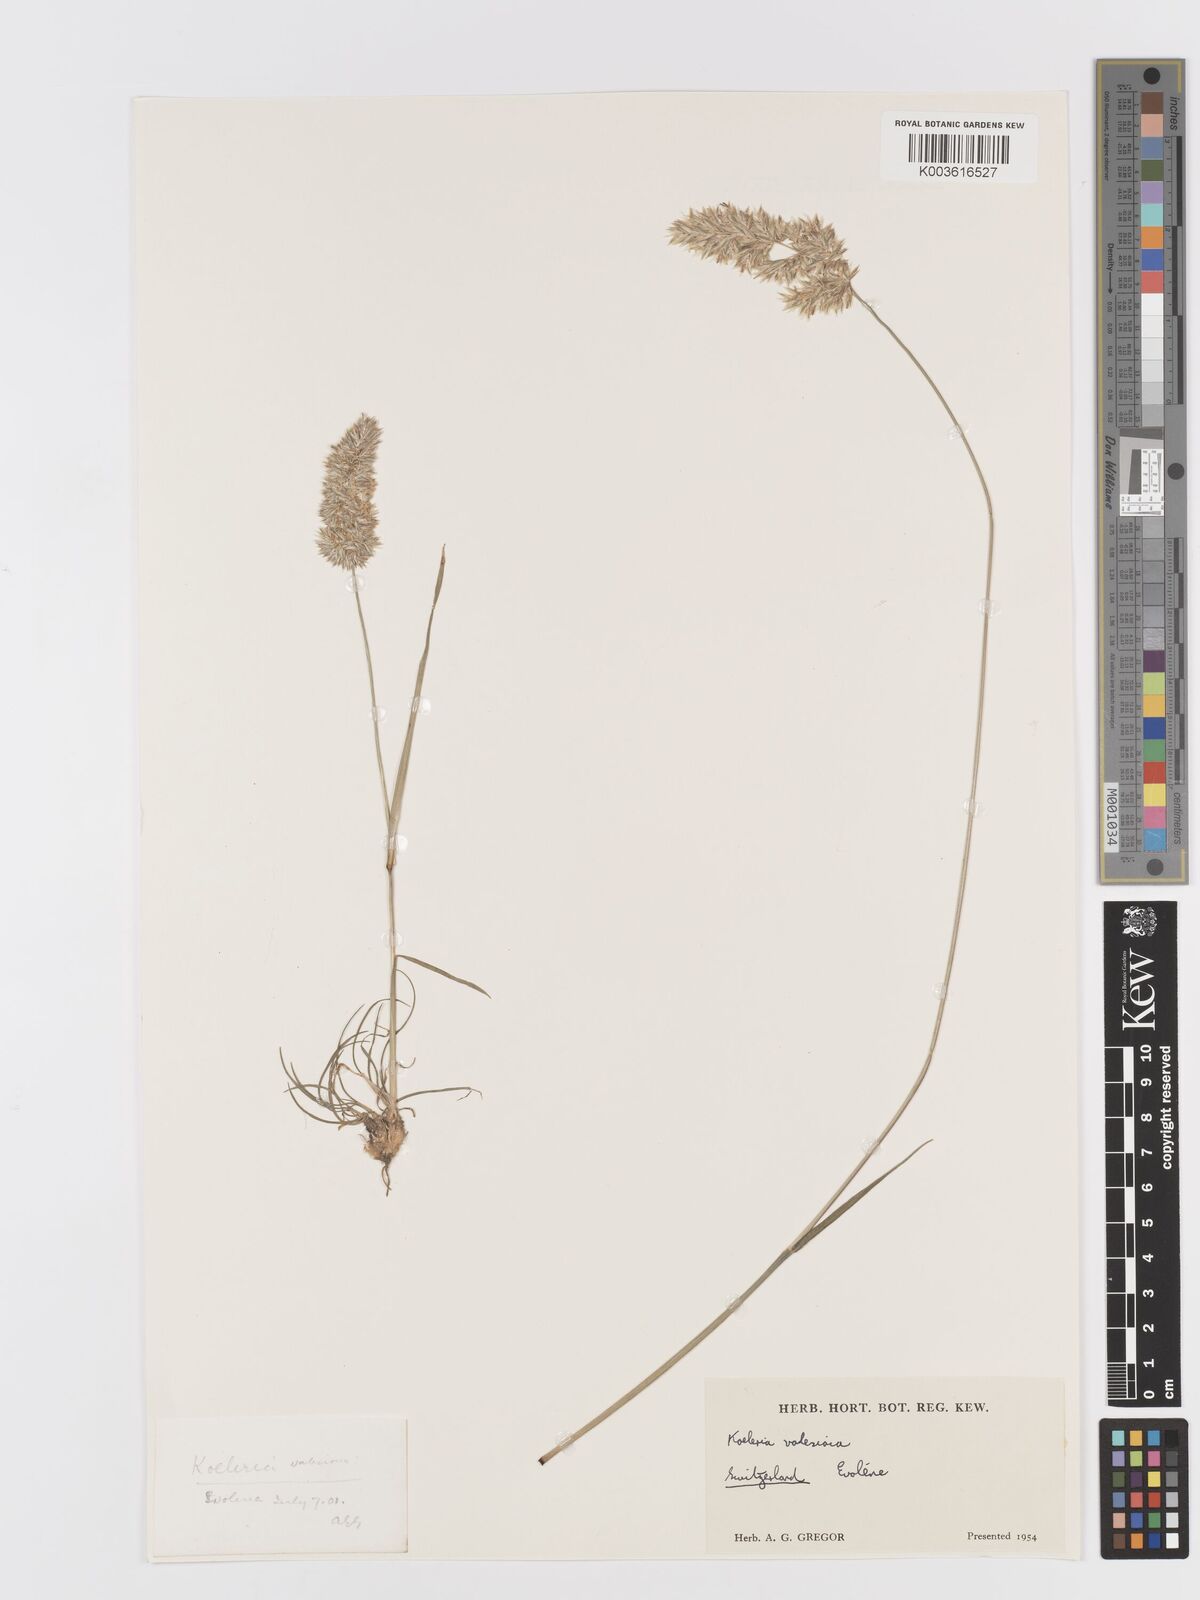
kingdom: Plantae
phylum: Tracheophyta
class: Liliopsida
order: Poales
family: Poaceae
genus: Koeleria
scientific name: Koeleria vallesiana
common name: Somerset hair-grass
